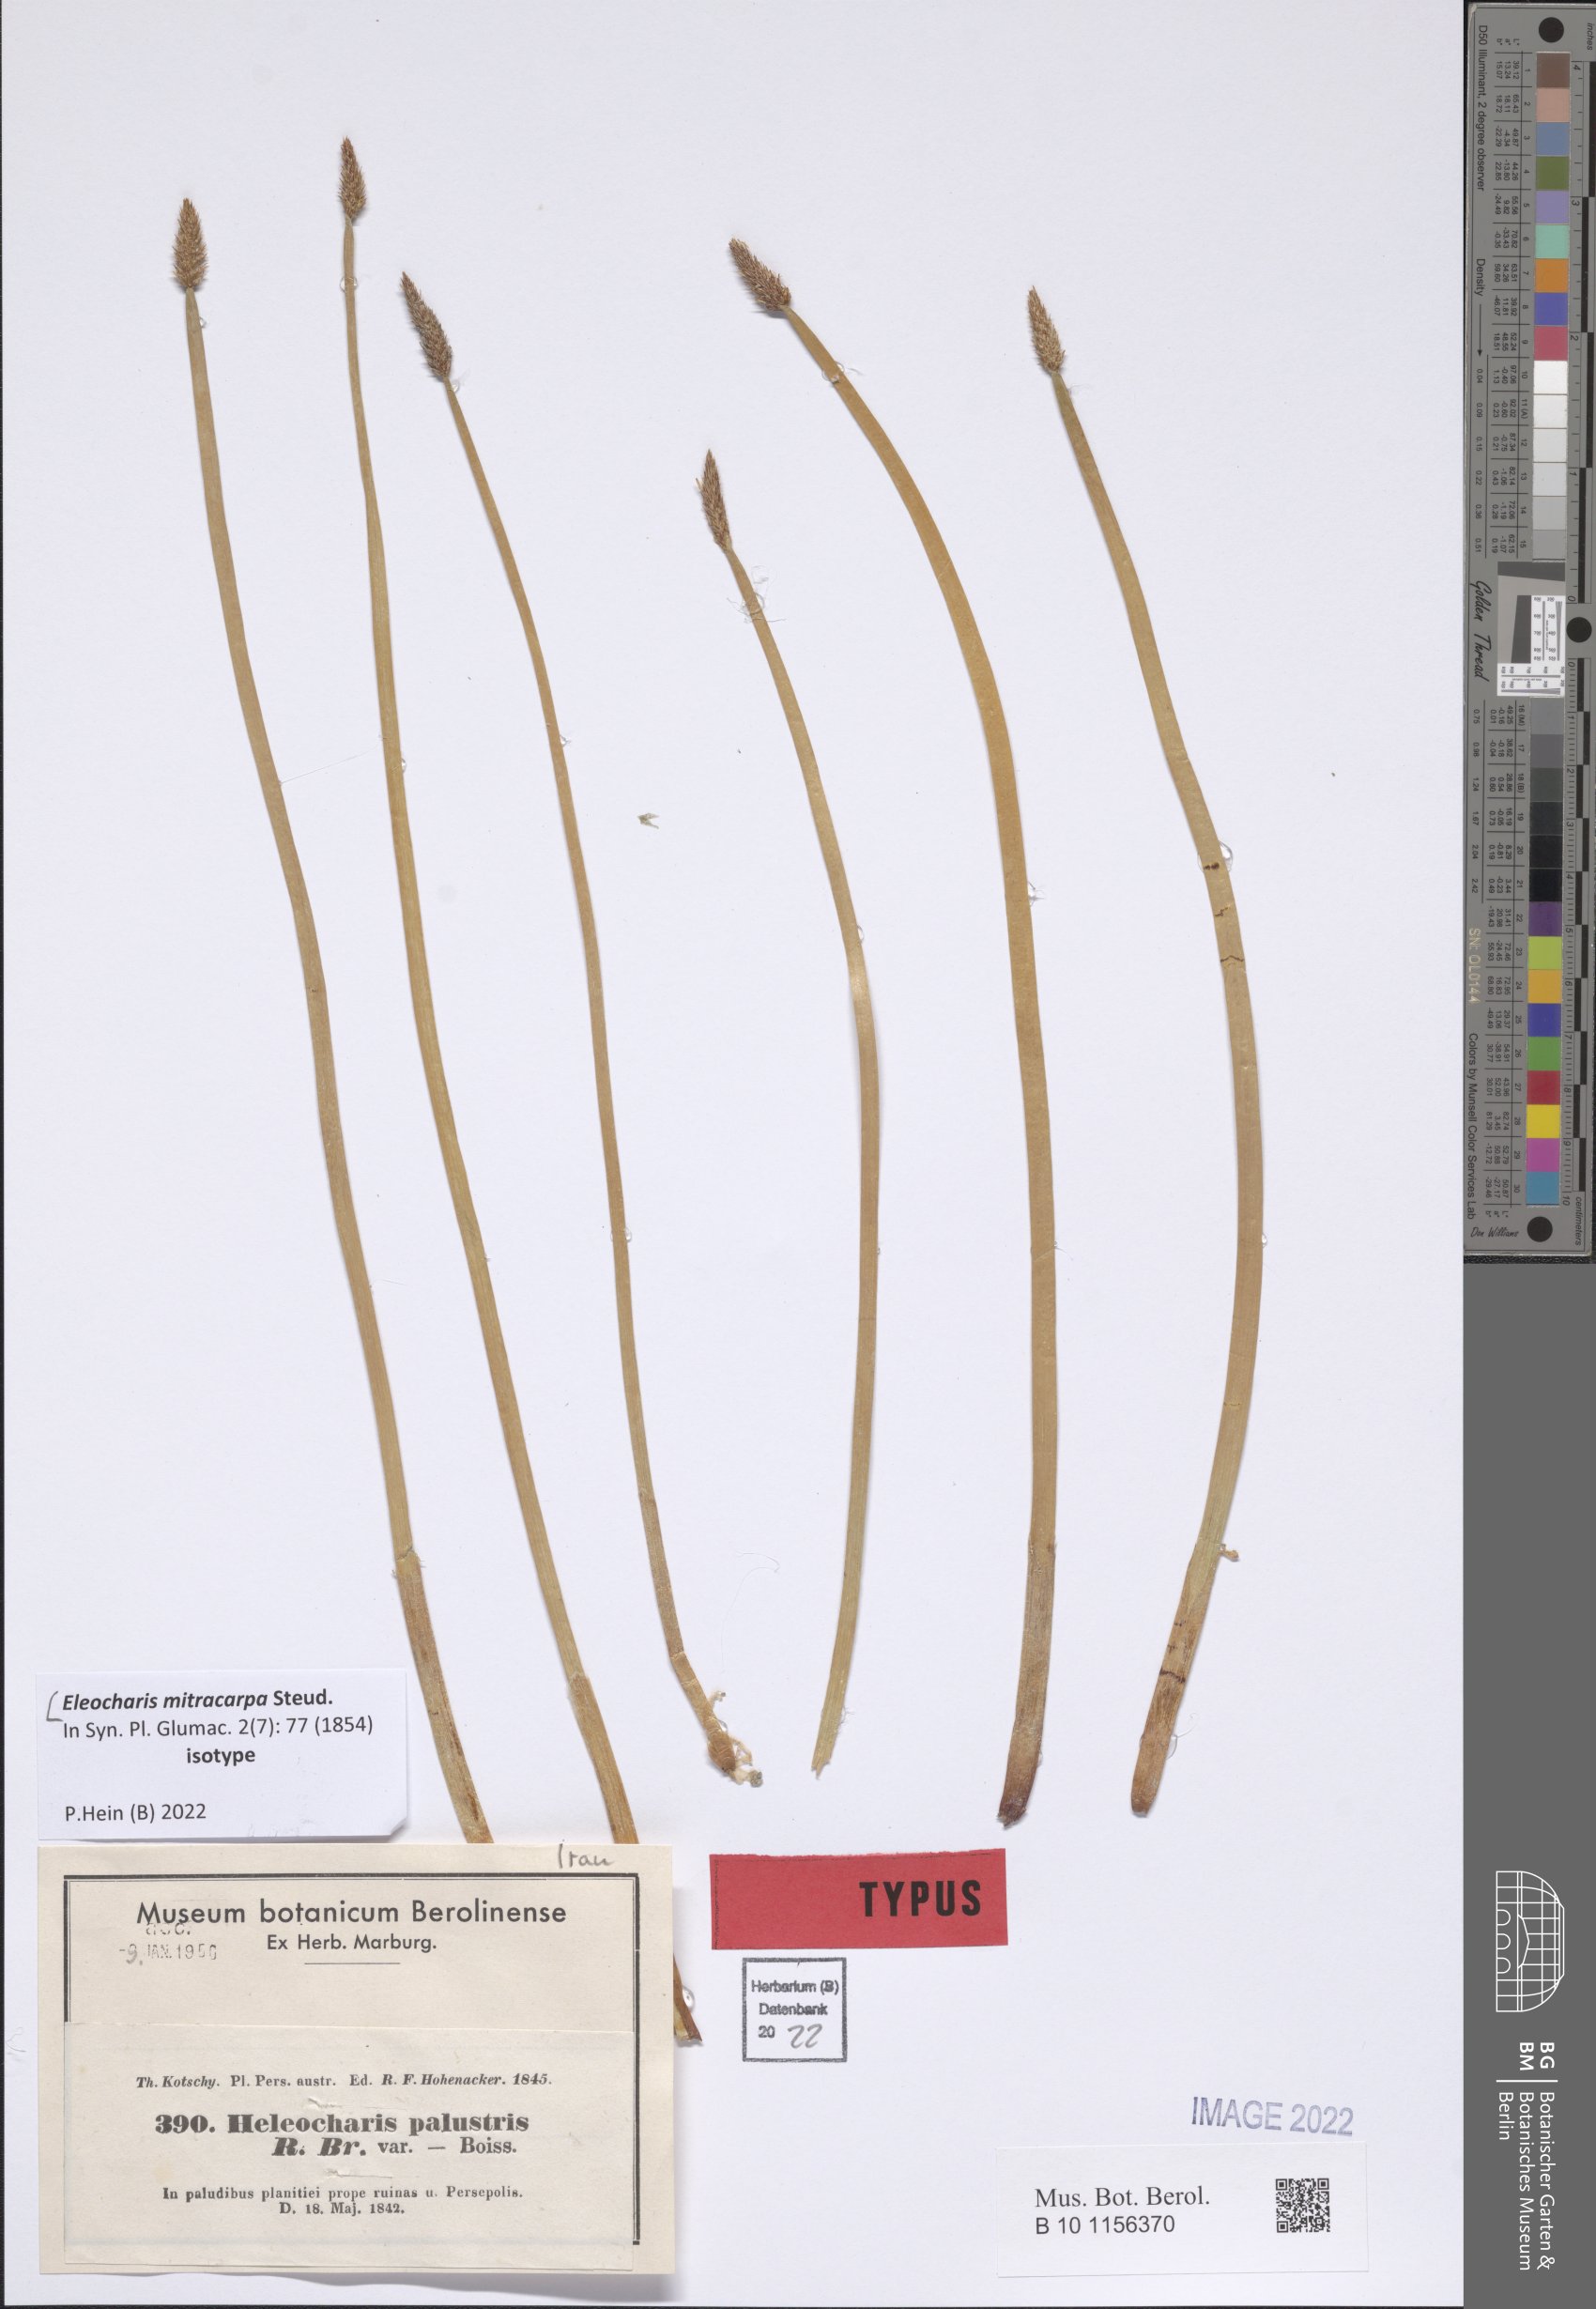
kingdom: Plantae
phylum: Tracheophyta
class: Liliopsida
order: Poales
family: Cyperaceae
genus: Eleocharis
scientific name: Eleocharis mitracarpa
